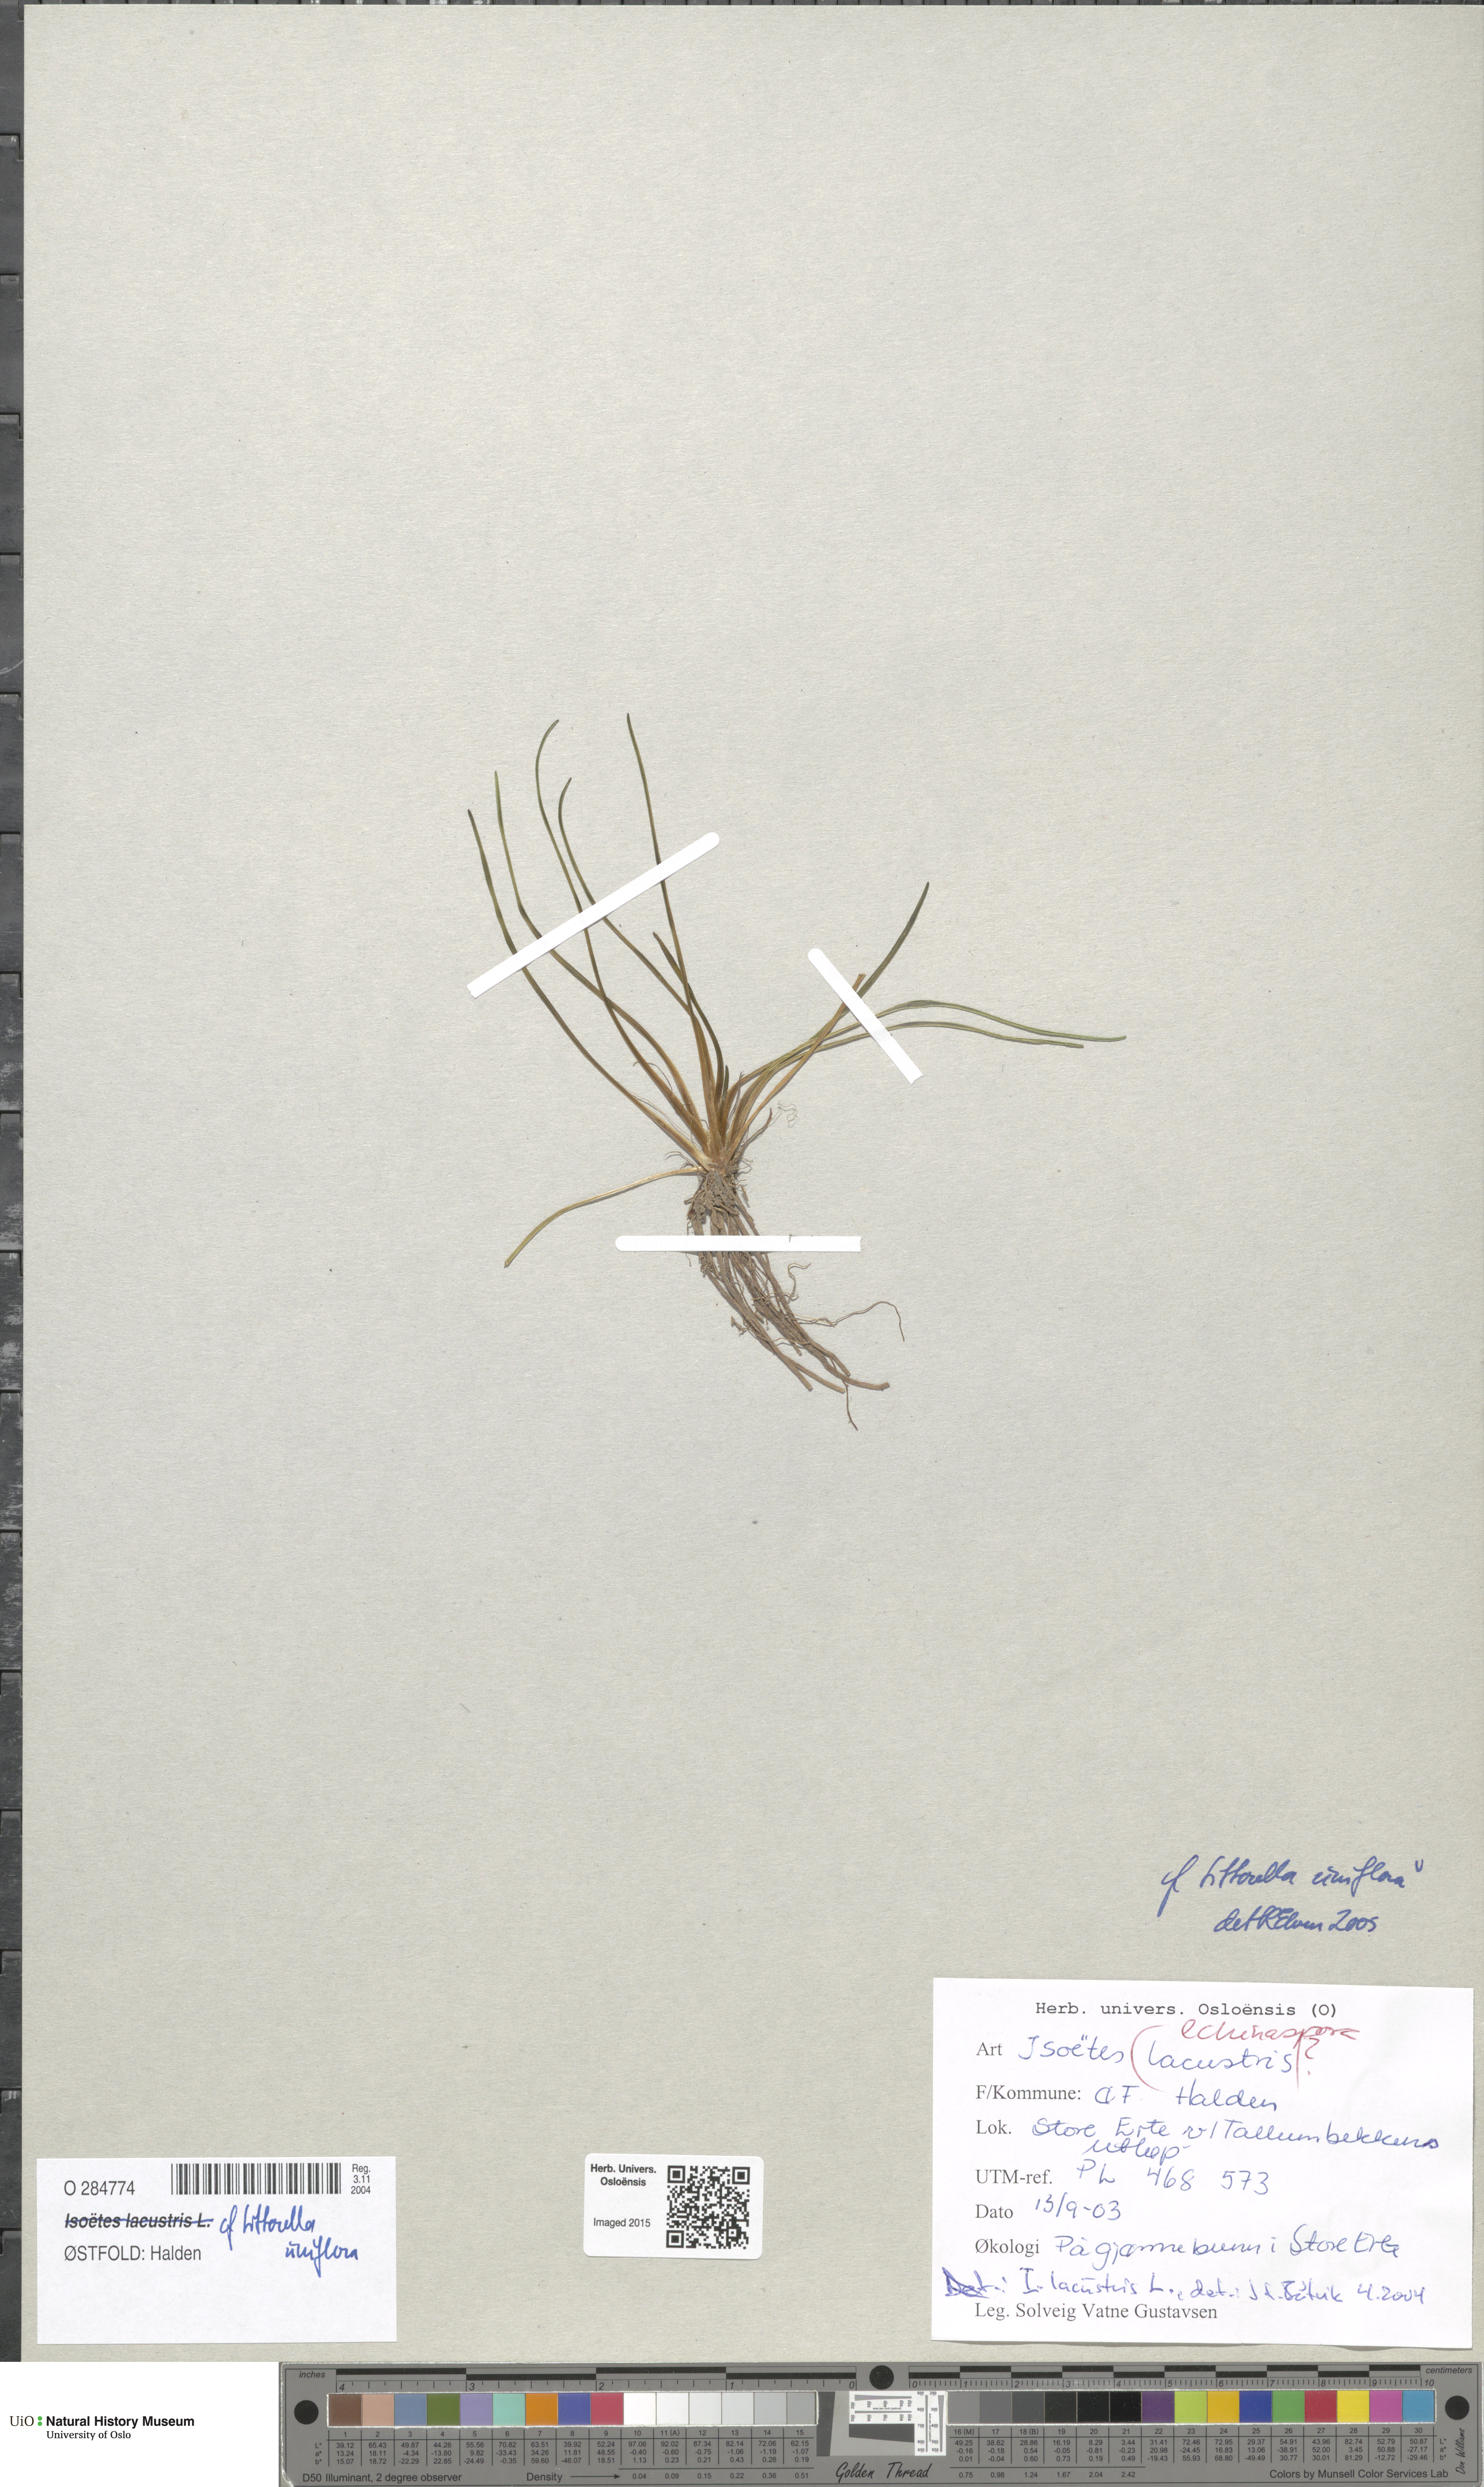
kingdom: Plantae
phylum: Tracheophyta
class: Magnoliopsida
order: Lamiales
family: Plantaginaceae
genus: Littorella
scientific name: Littorella uniflora
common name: Shoreweed
